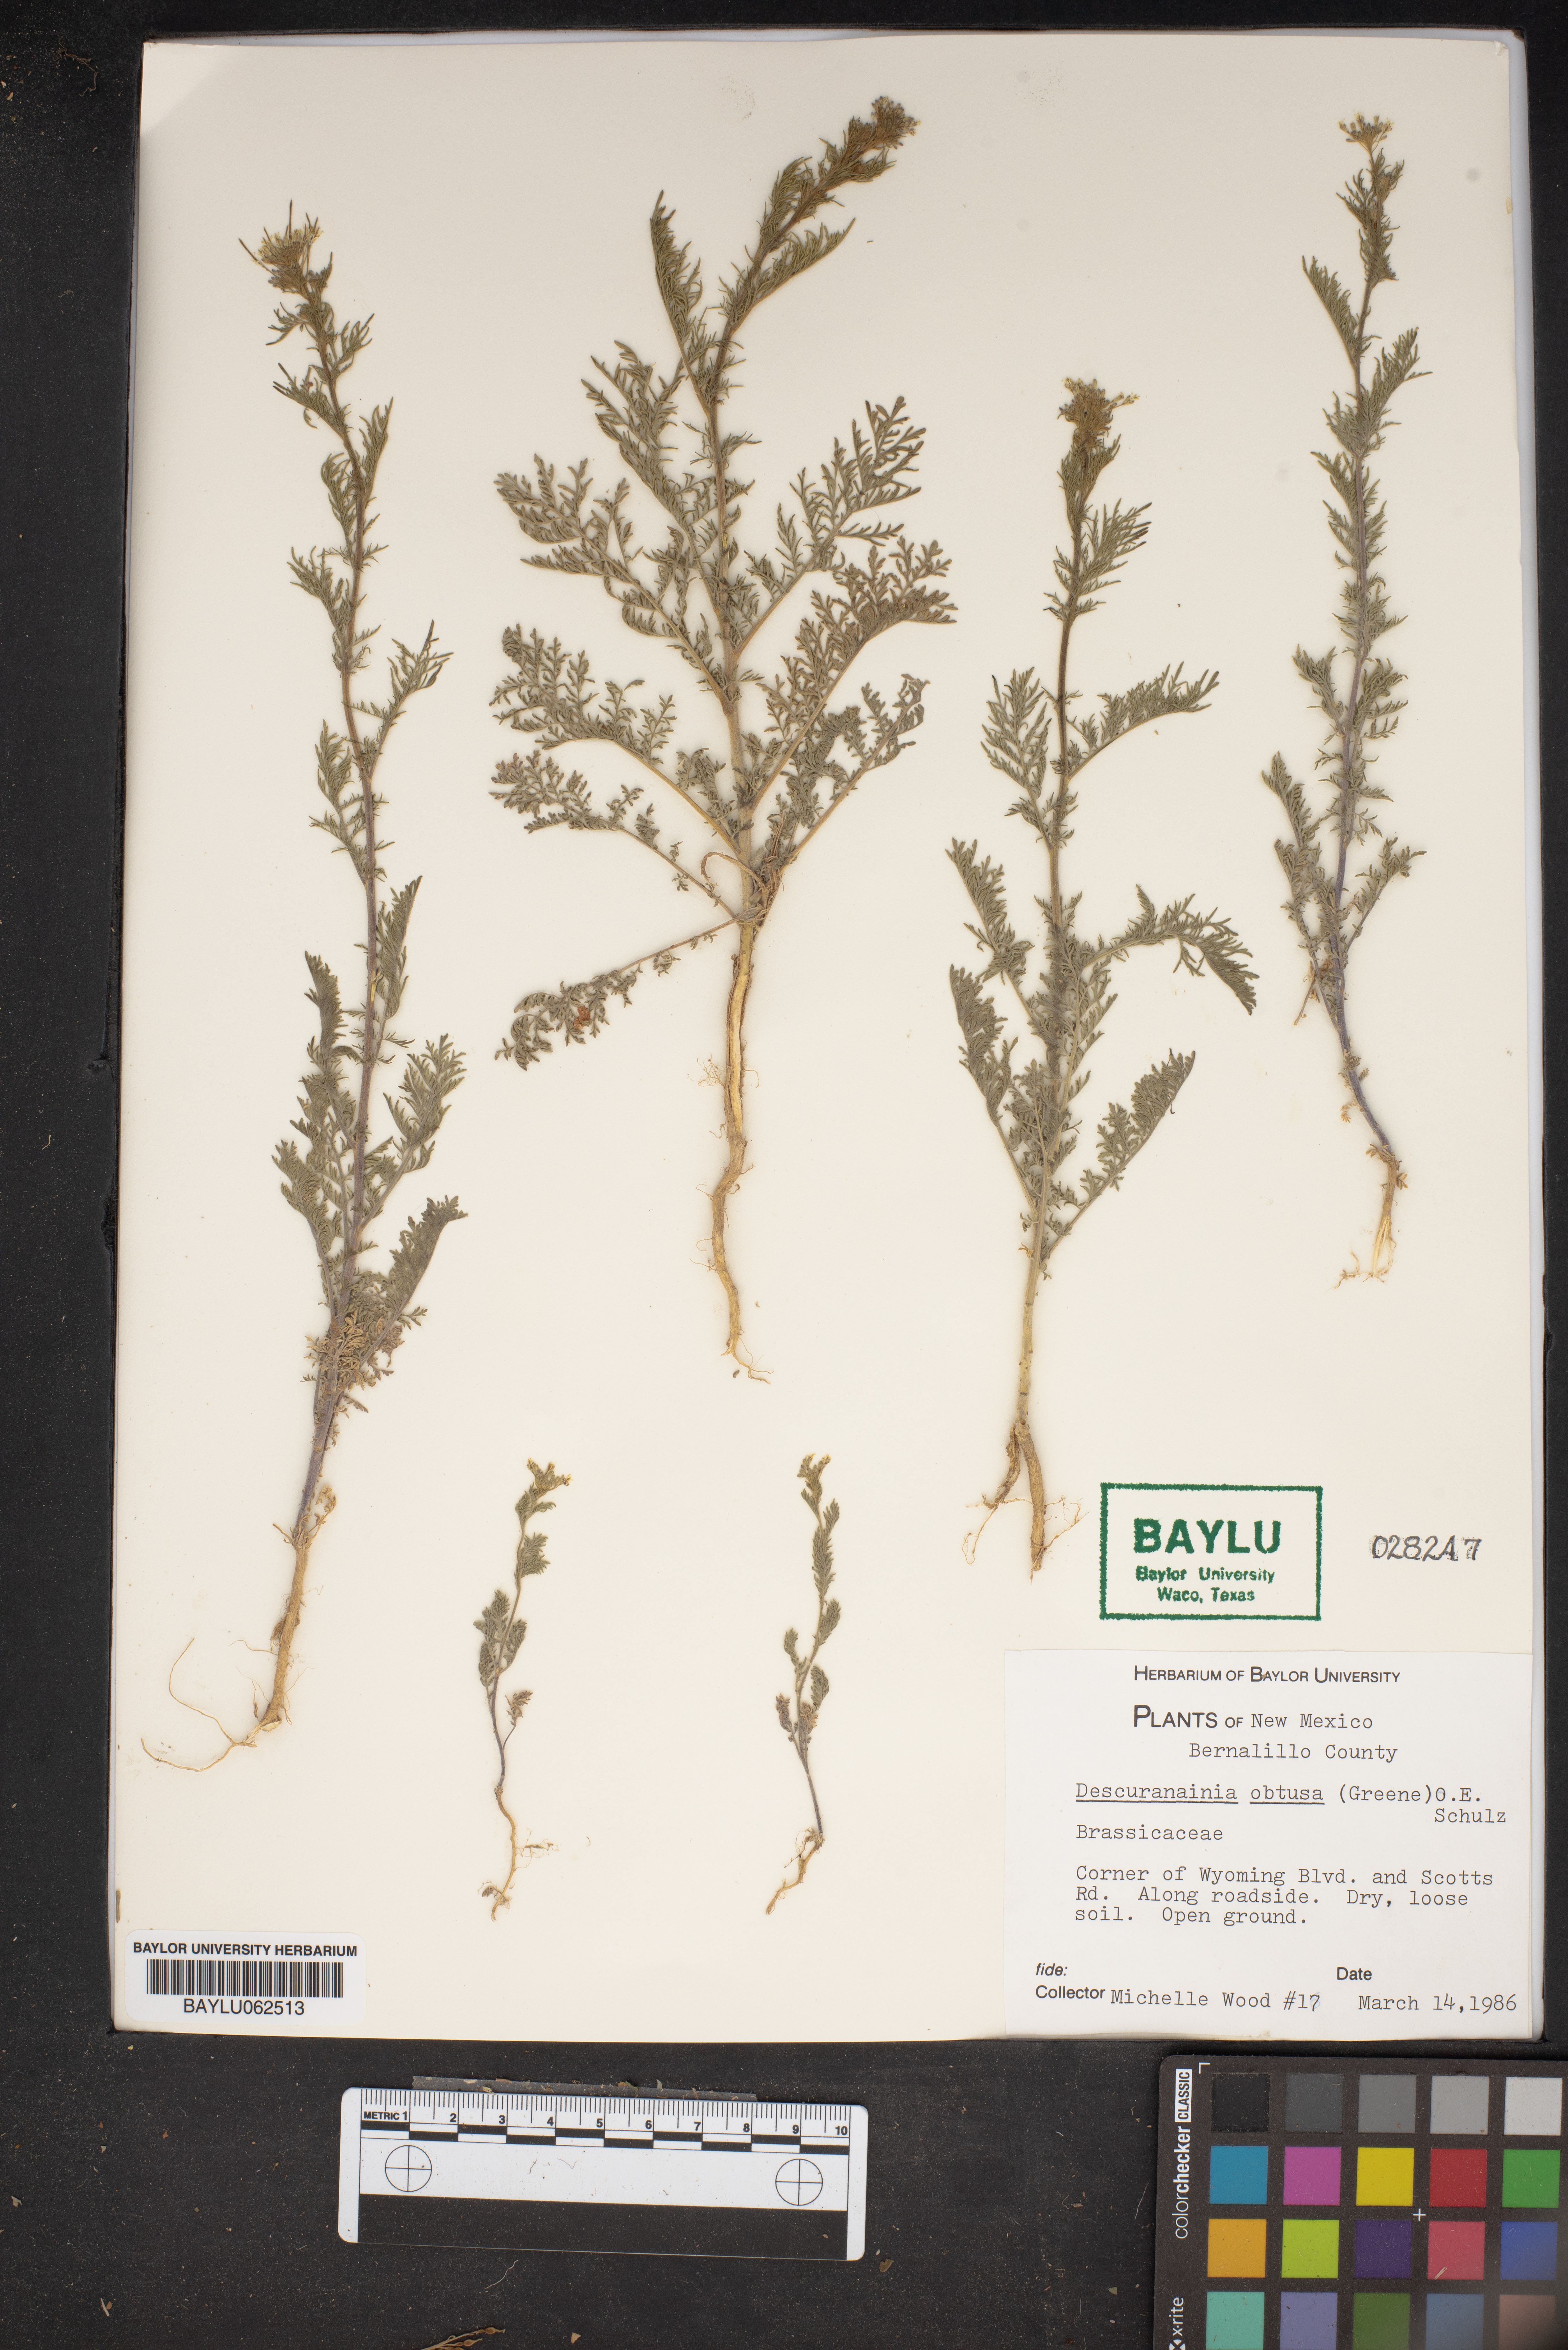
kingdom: Plantae
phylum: Tracheophyta
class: Magnoliopsida
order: Brassicales
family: Brassicaceae
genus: Descurainia
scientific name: Descurainia obtusa
